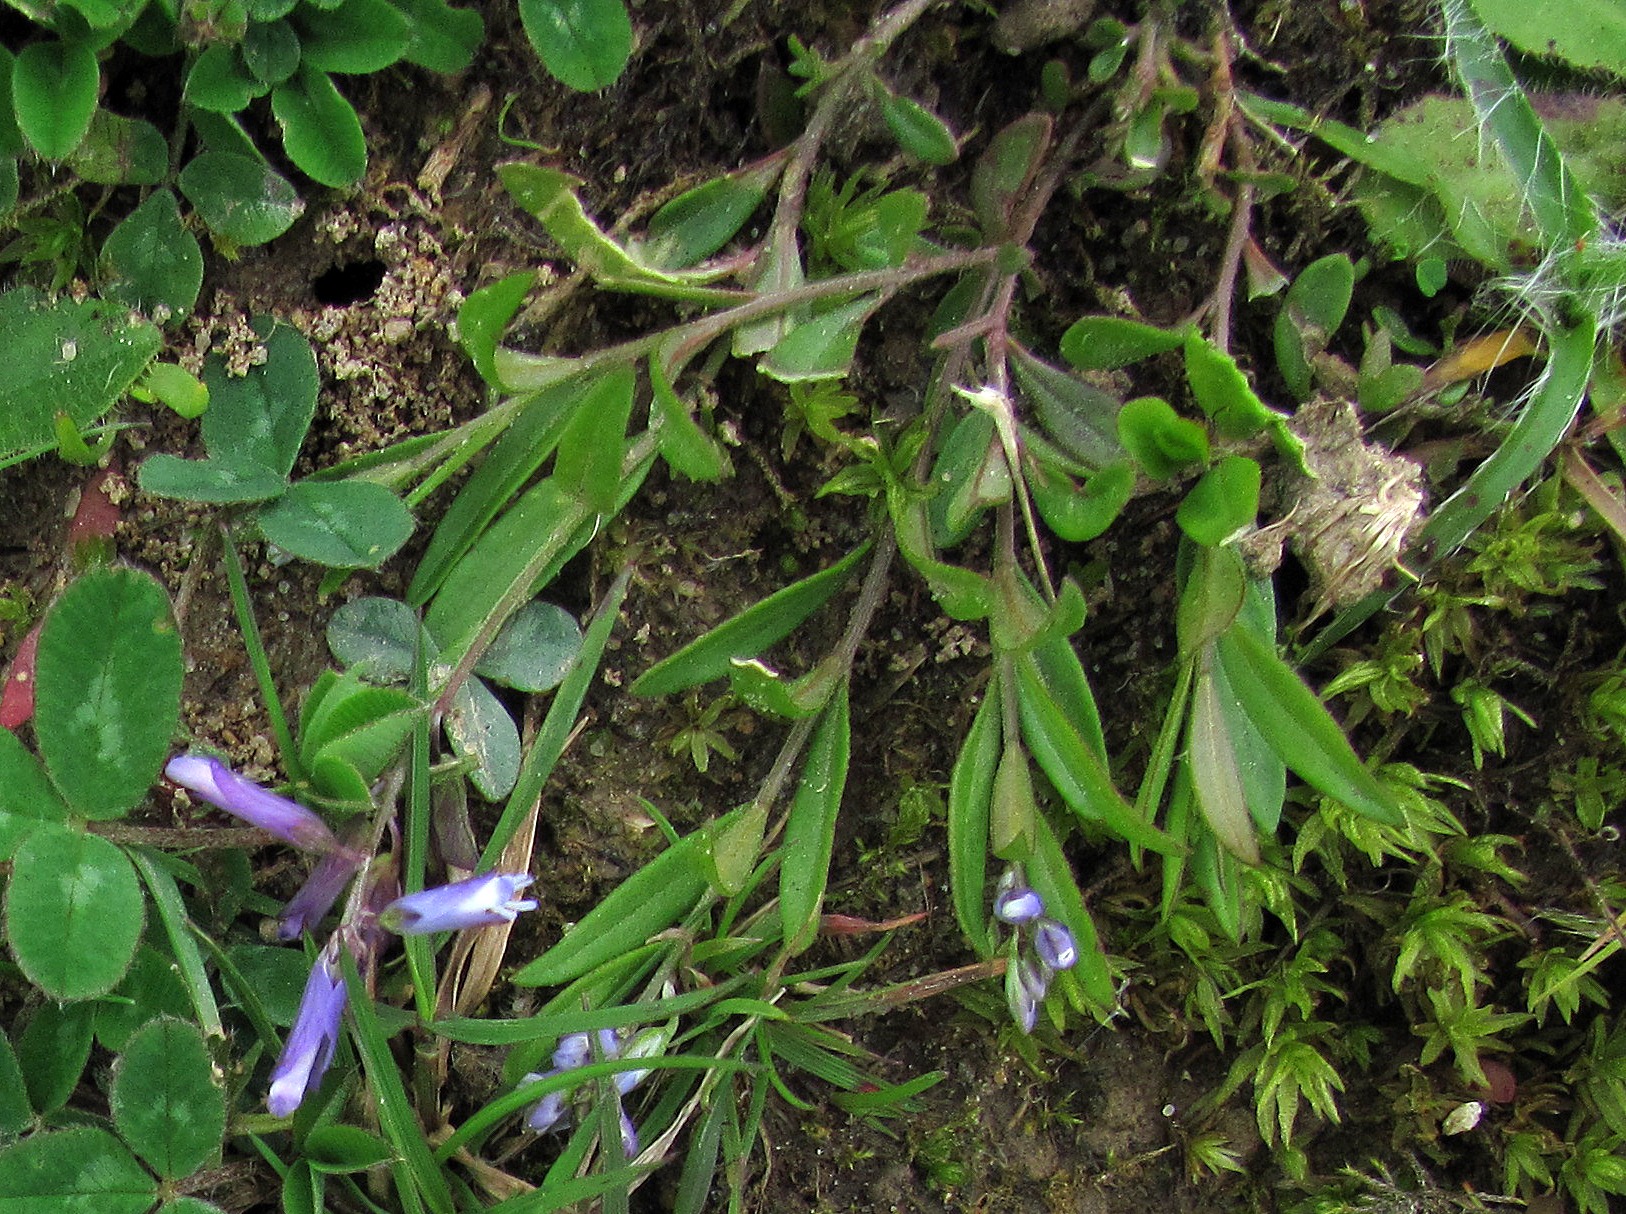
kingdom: Plantae
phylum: Tracheophyta
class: Magnoliopsida
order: Fabales
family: Polygalaceae
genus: Polygala
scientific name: Polygala vulgaris
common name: Almindelig mælkeurt
